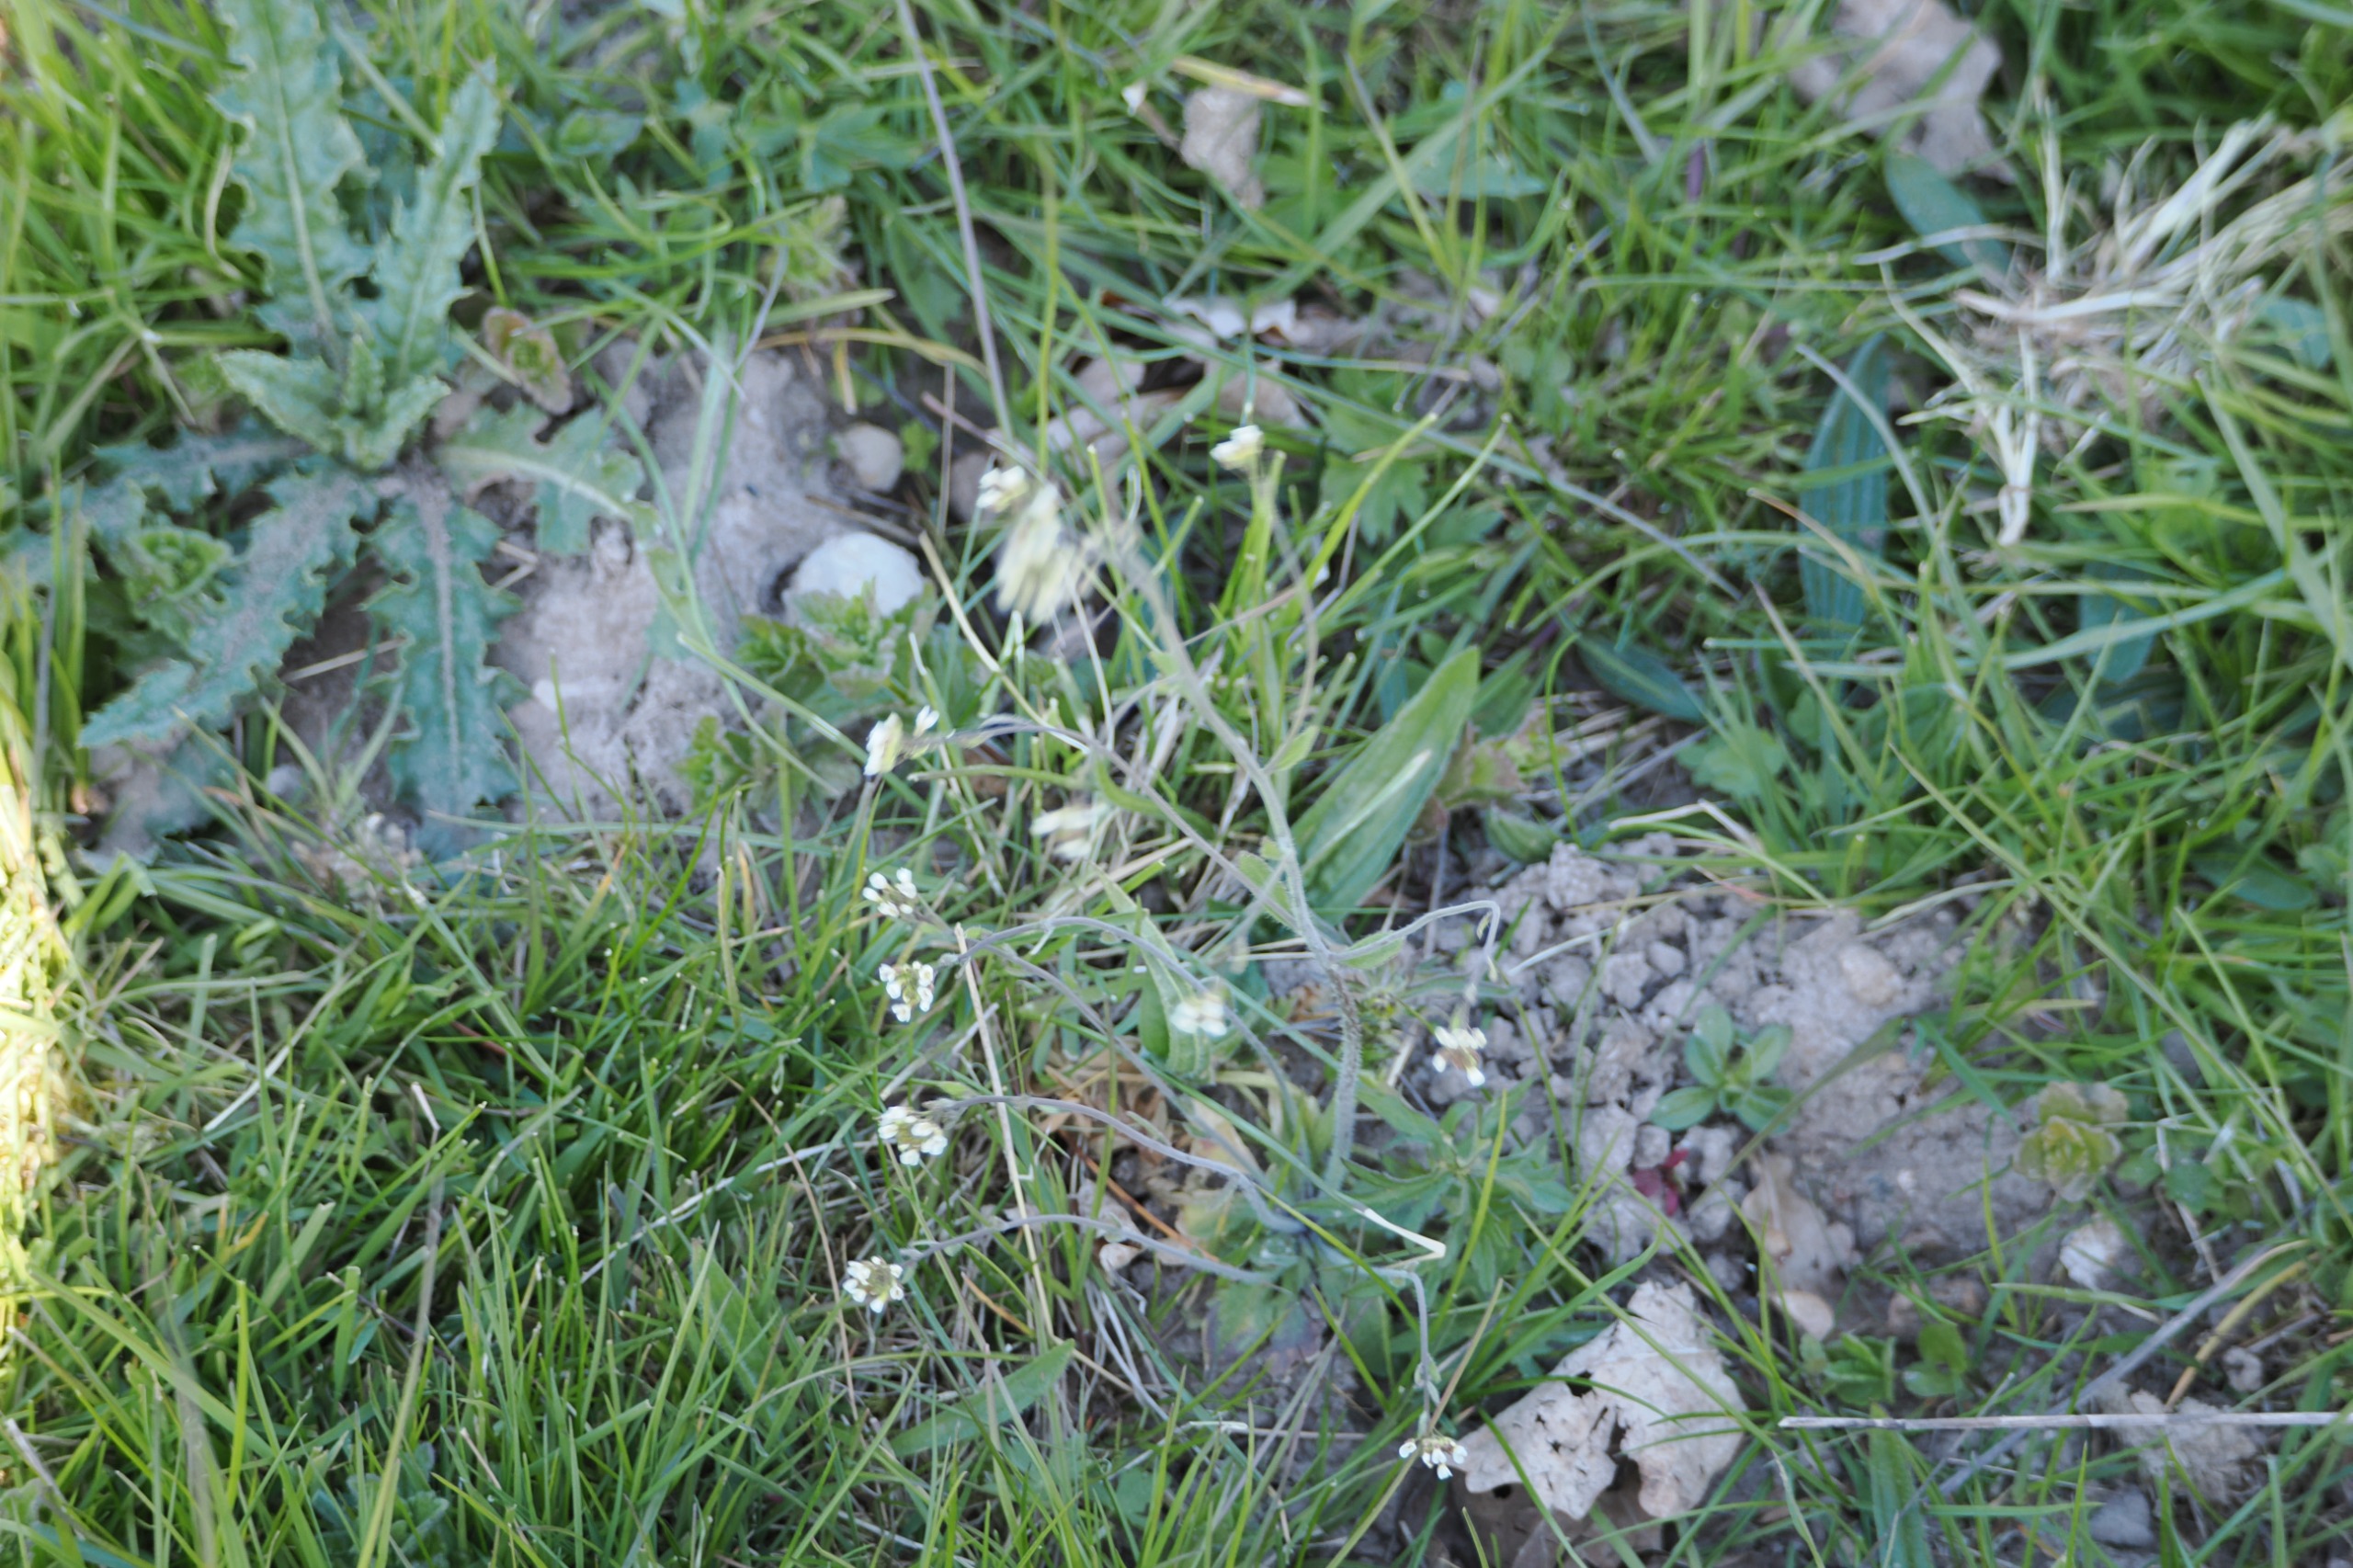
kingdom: Plantae
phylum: Tracheophyta
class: Magnoliopsida
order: Brassicales
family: Brassicaceae
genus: Arabidopsis
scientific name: Arabidopsis thaliana
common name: Almindelig gåsemad
